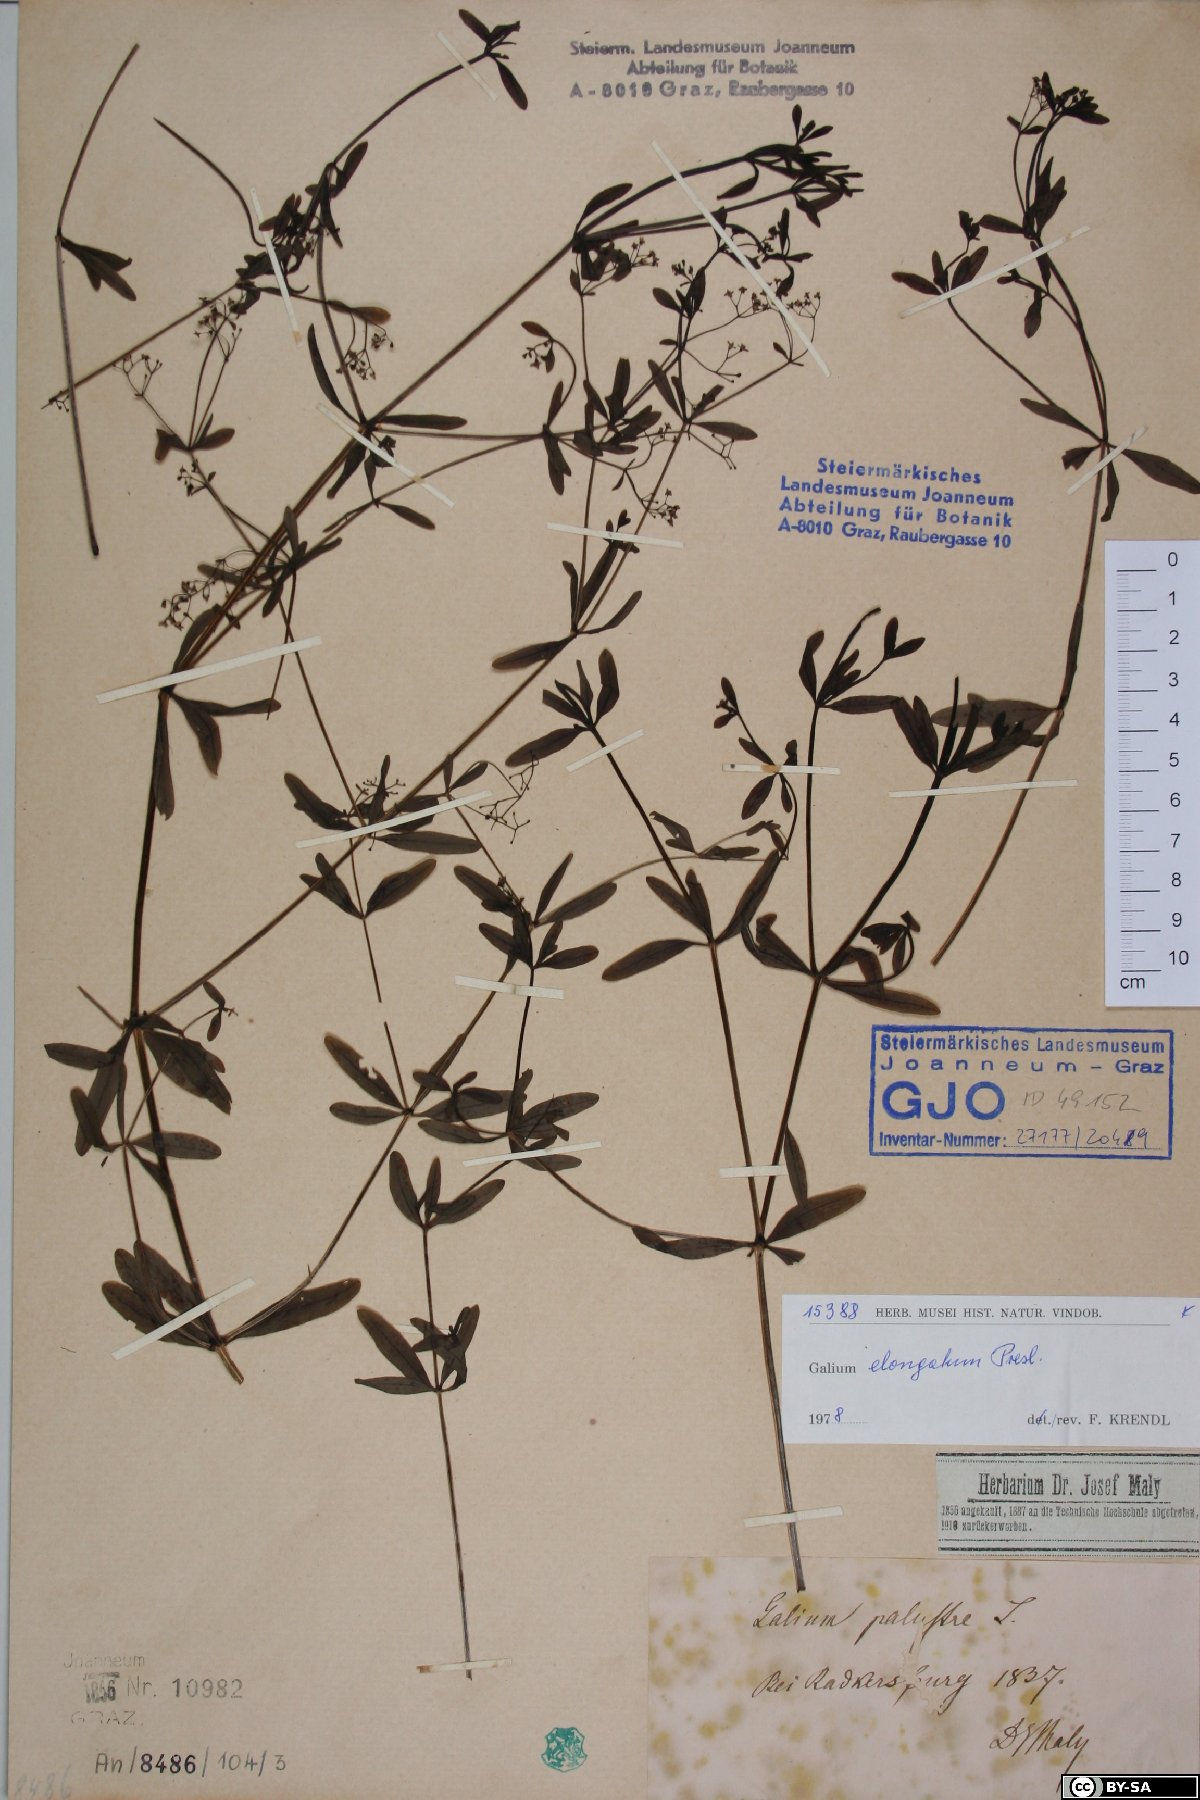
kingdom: Plantae
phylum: Tracheophyta
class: Magnoliopsida
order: Gentianales
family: Rubiaceae
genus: Galium
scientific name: Galium elongatum
